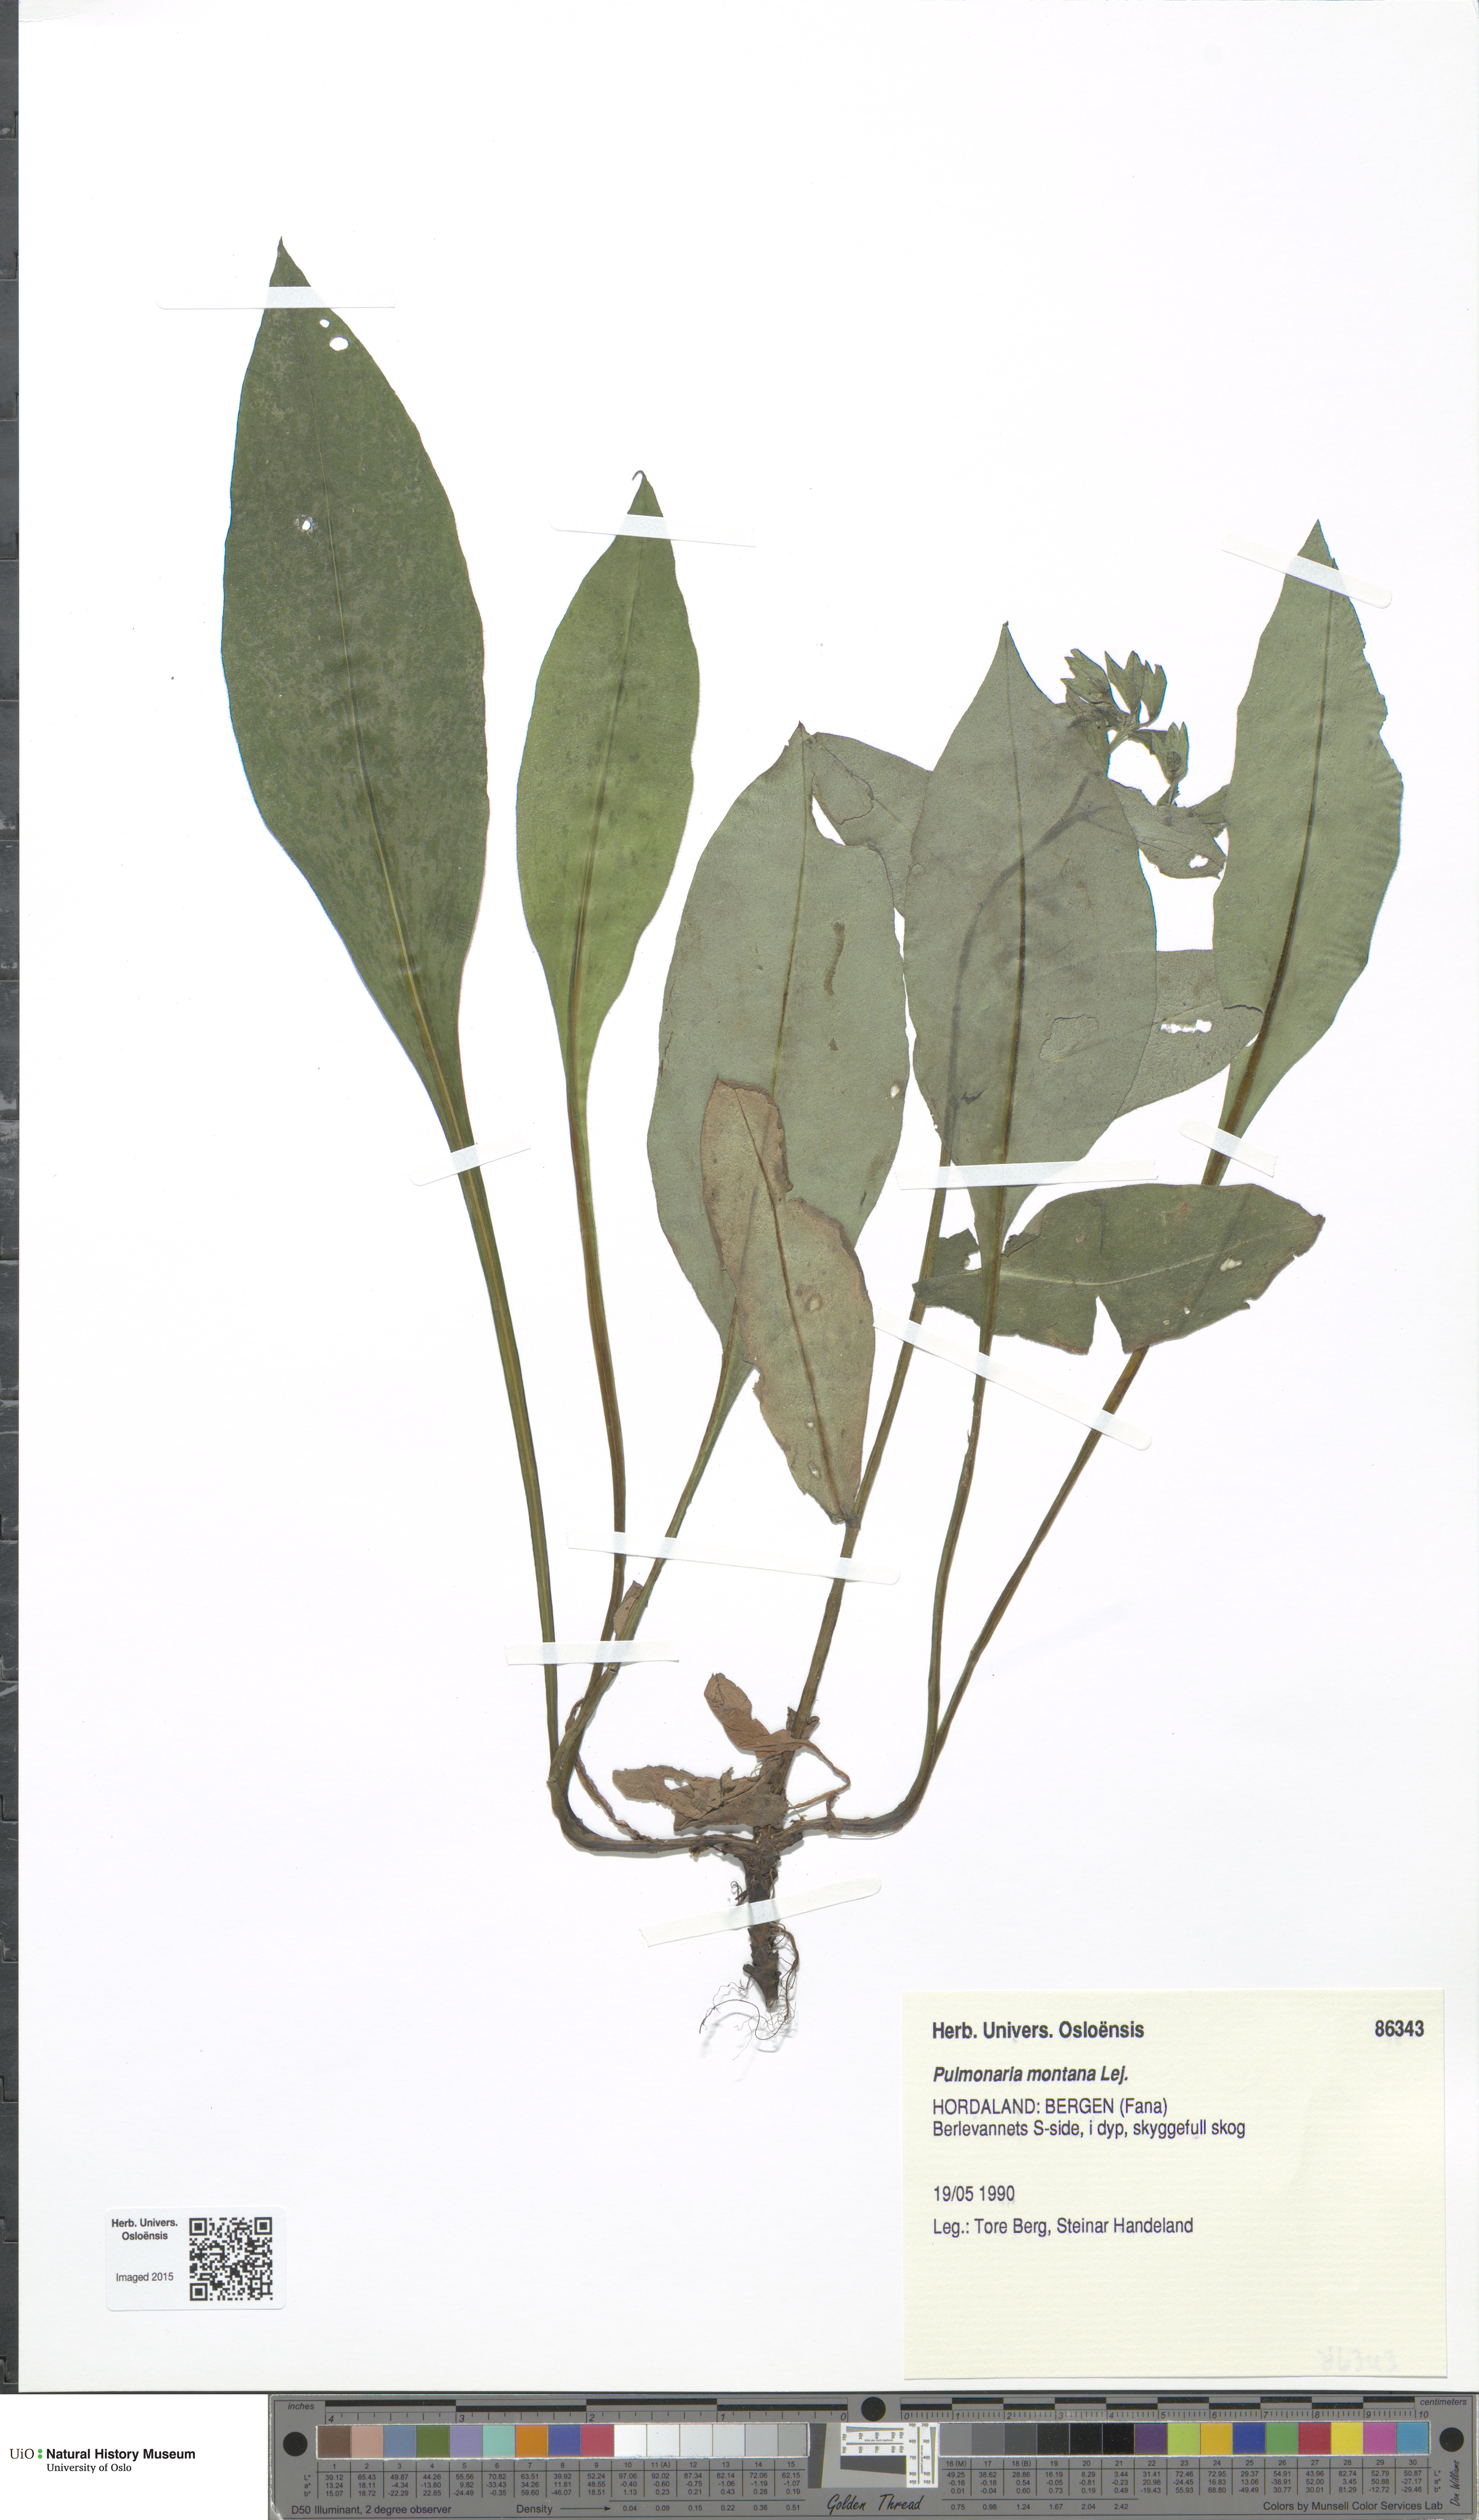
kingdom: Plantae
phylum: Tracheophyta
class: Magnoliopsida
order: Boraginales
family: Boraginaceae
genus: Pulmonaria
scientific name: Pulmonaria mollis
